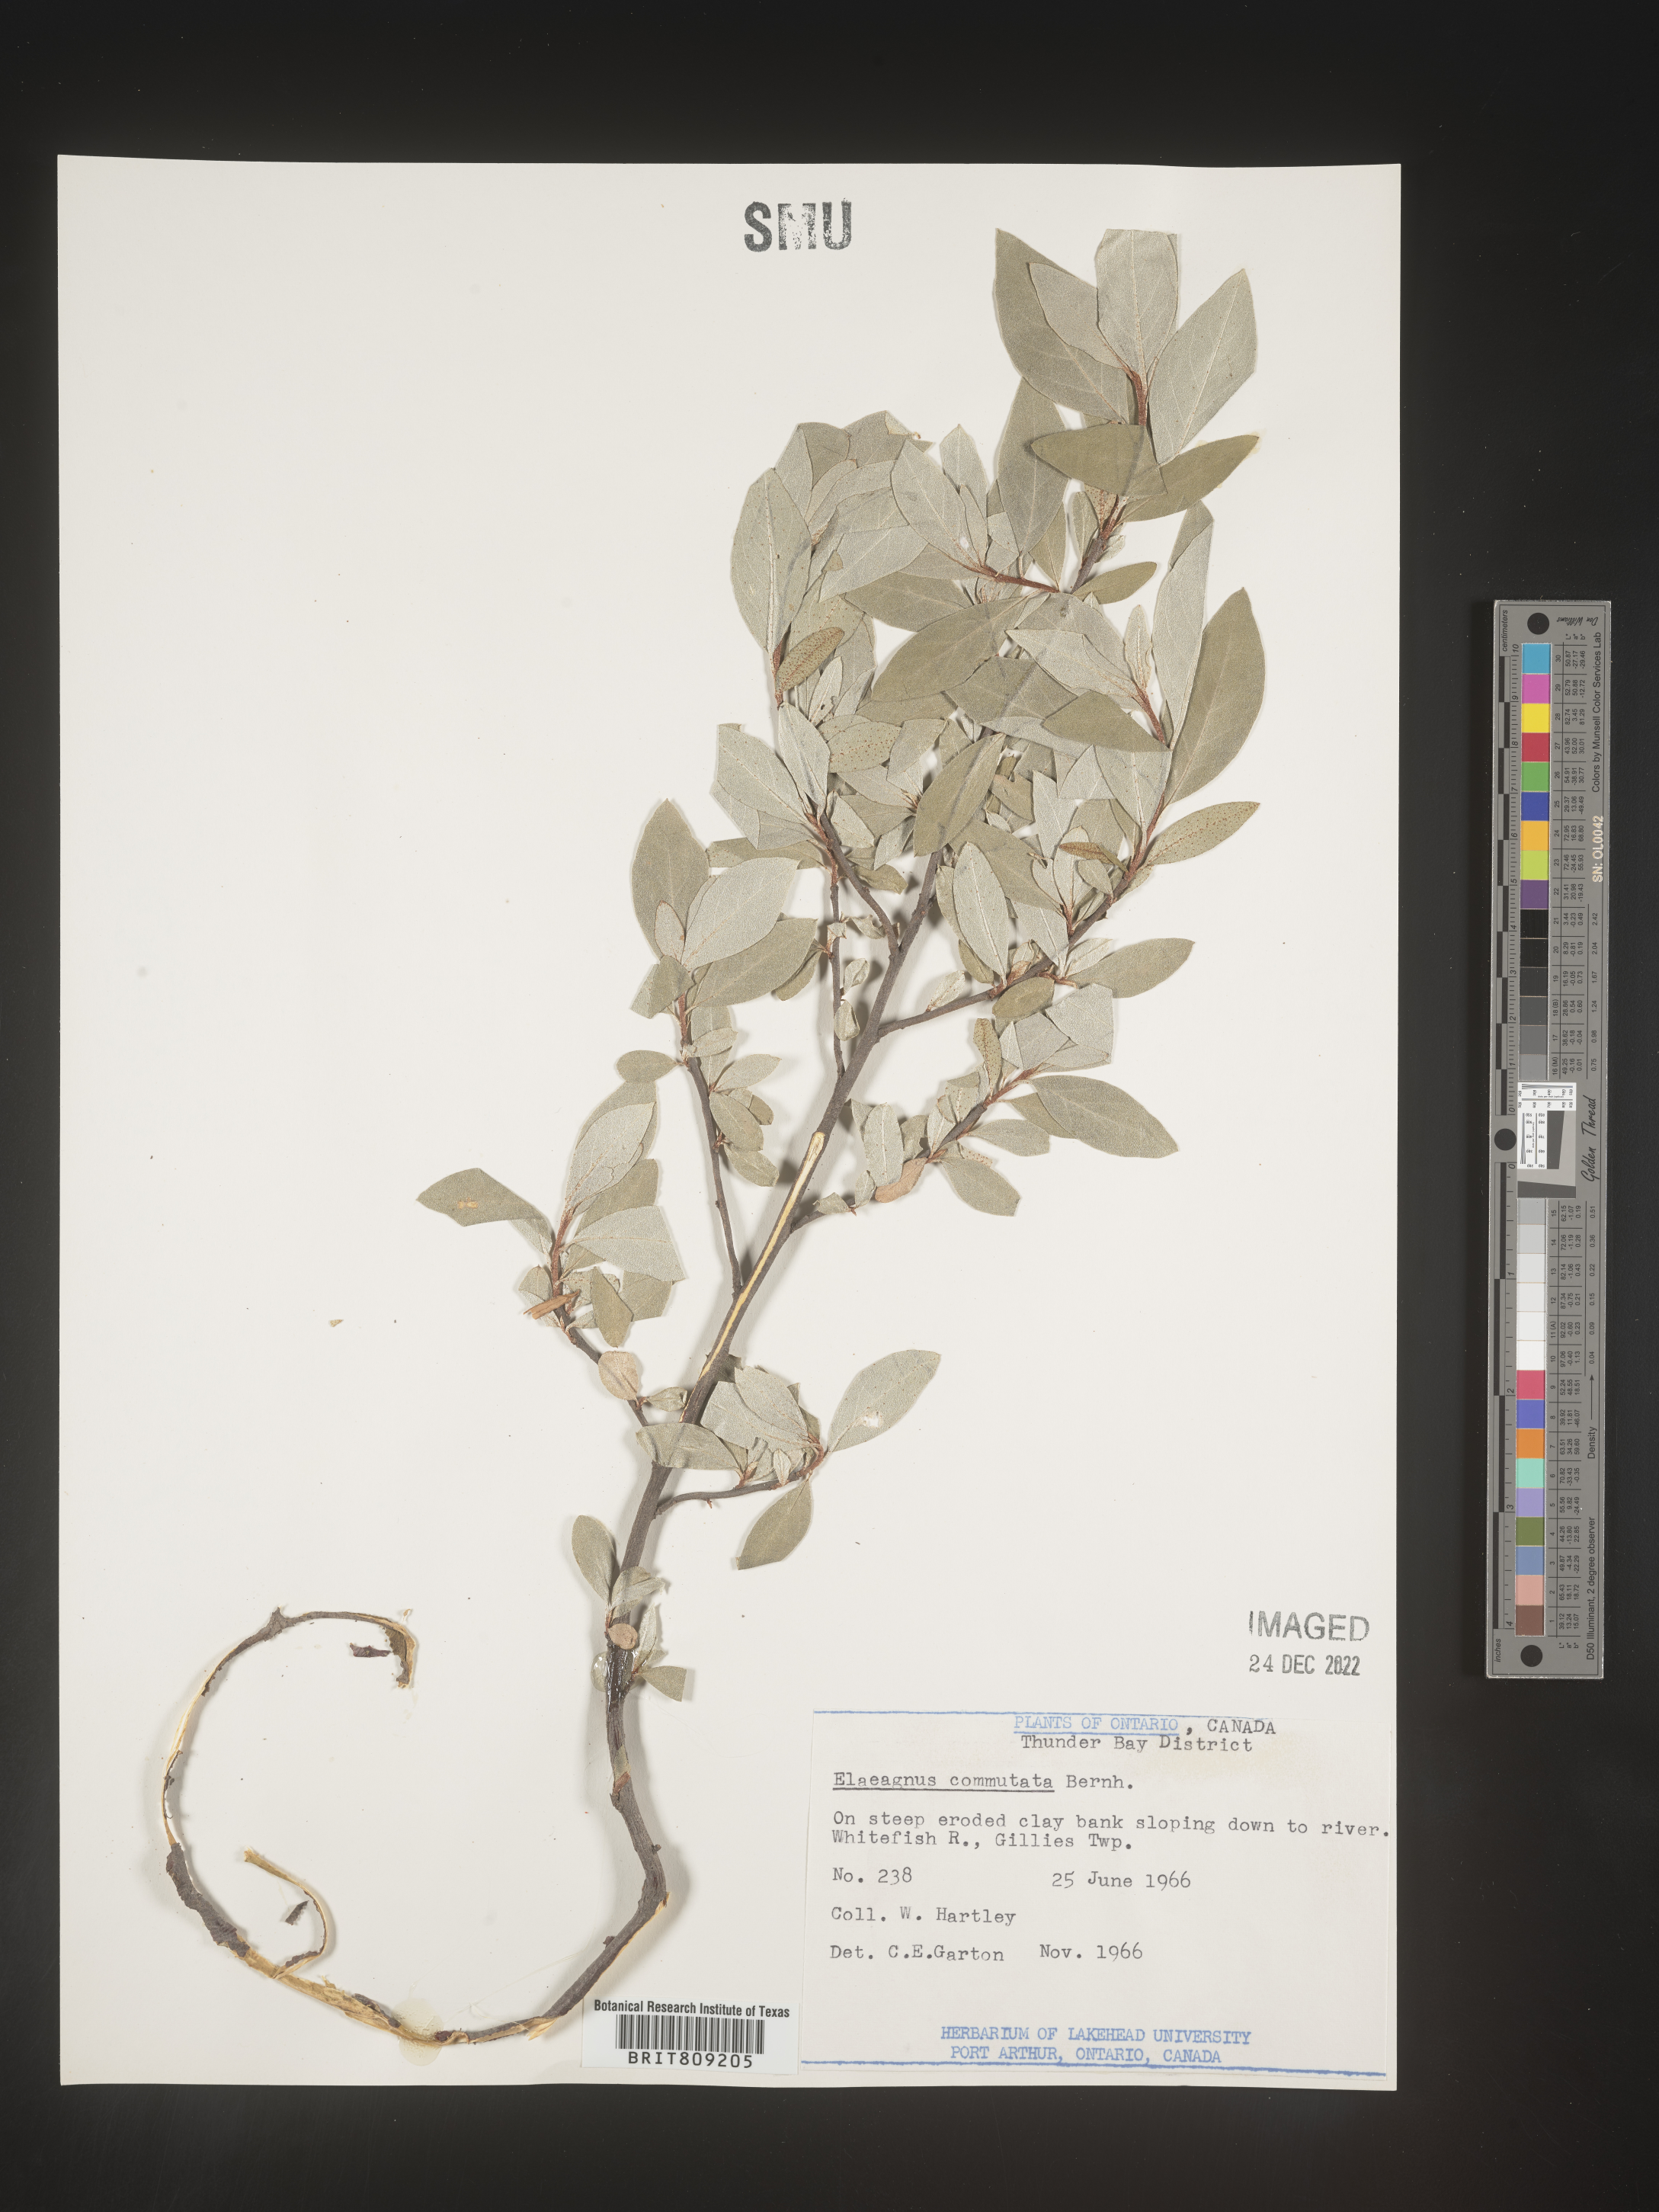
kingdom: Plantae
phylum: Tracheophyta
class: Magnoliopsida
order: Rosales
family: Elaeagnaceae
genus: Elaeagnus
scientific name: Elaeagnus
